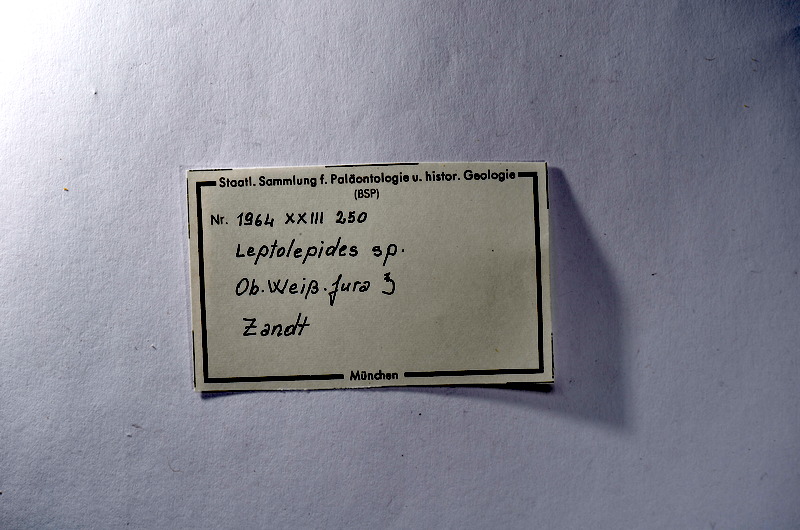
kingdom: Animalia
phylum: Chordata
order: Salmoniformes
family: Orthogonikleithridae
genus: Leptolepides
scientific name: Leptolepides
